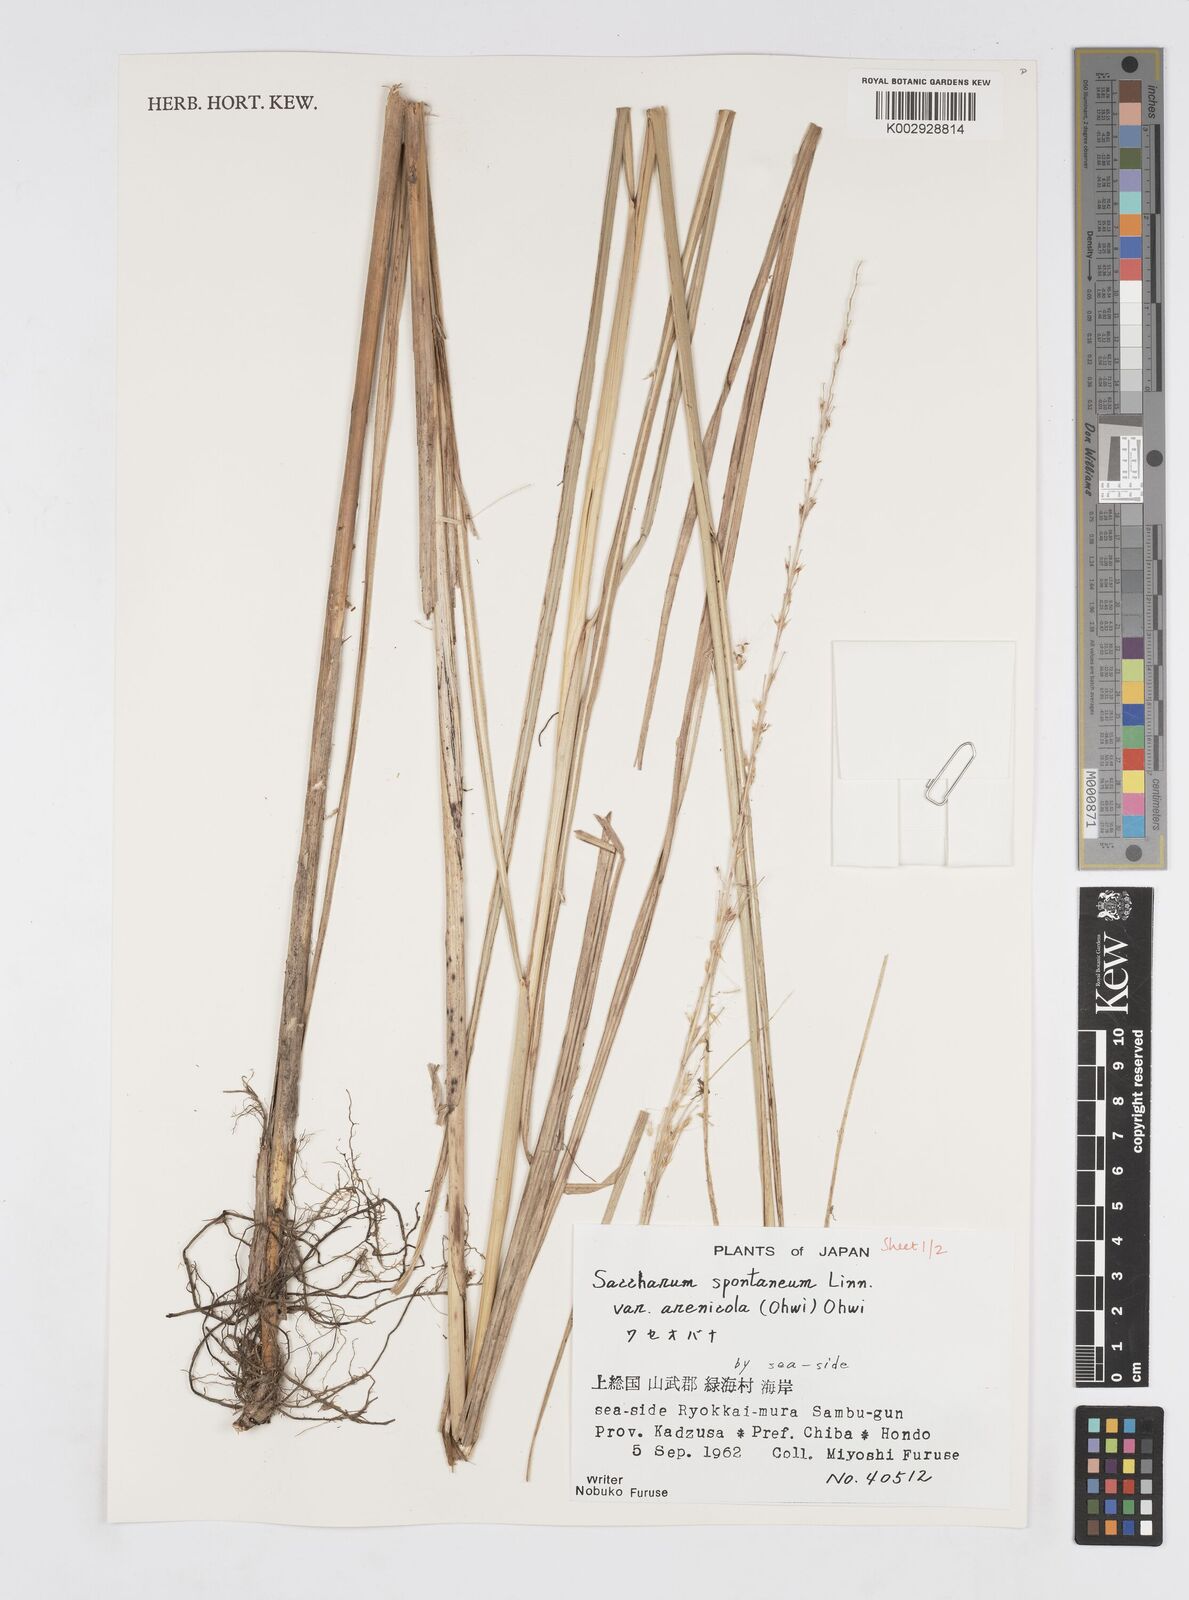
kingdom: Plantae
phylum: Tracheophyta
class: Liliopsida
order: Poales
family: Poaceae
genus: Saccharum
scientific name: Saccharum spontaneum
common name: Wild sugarcane
